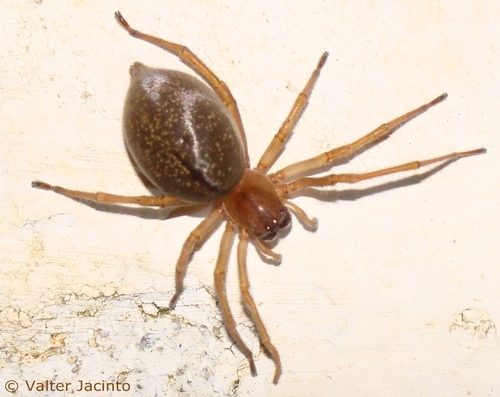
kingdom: Animalia
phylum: Arthropoda
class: Arachnida
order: Araneae
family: Cheiracanthiidae
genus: Cheiracanthium
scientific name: Cheiracanthium
